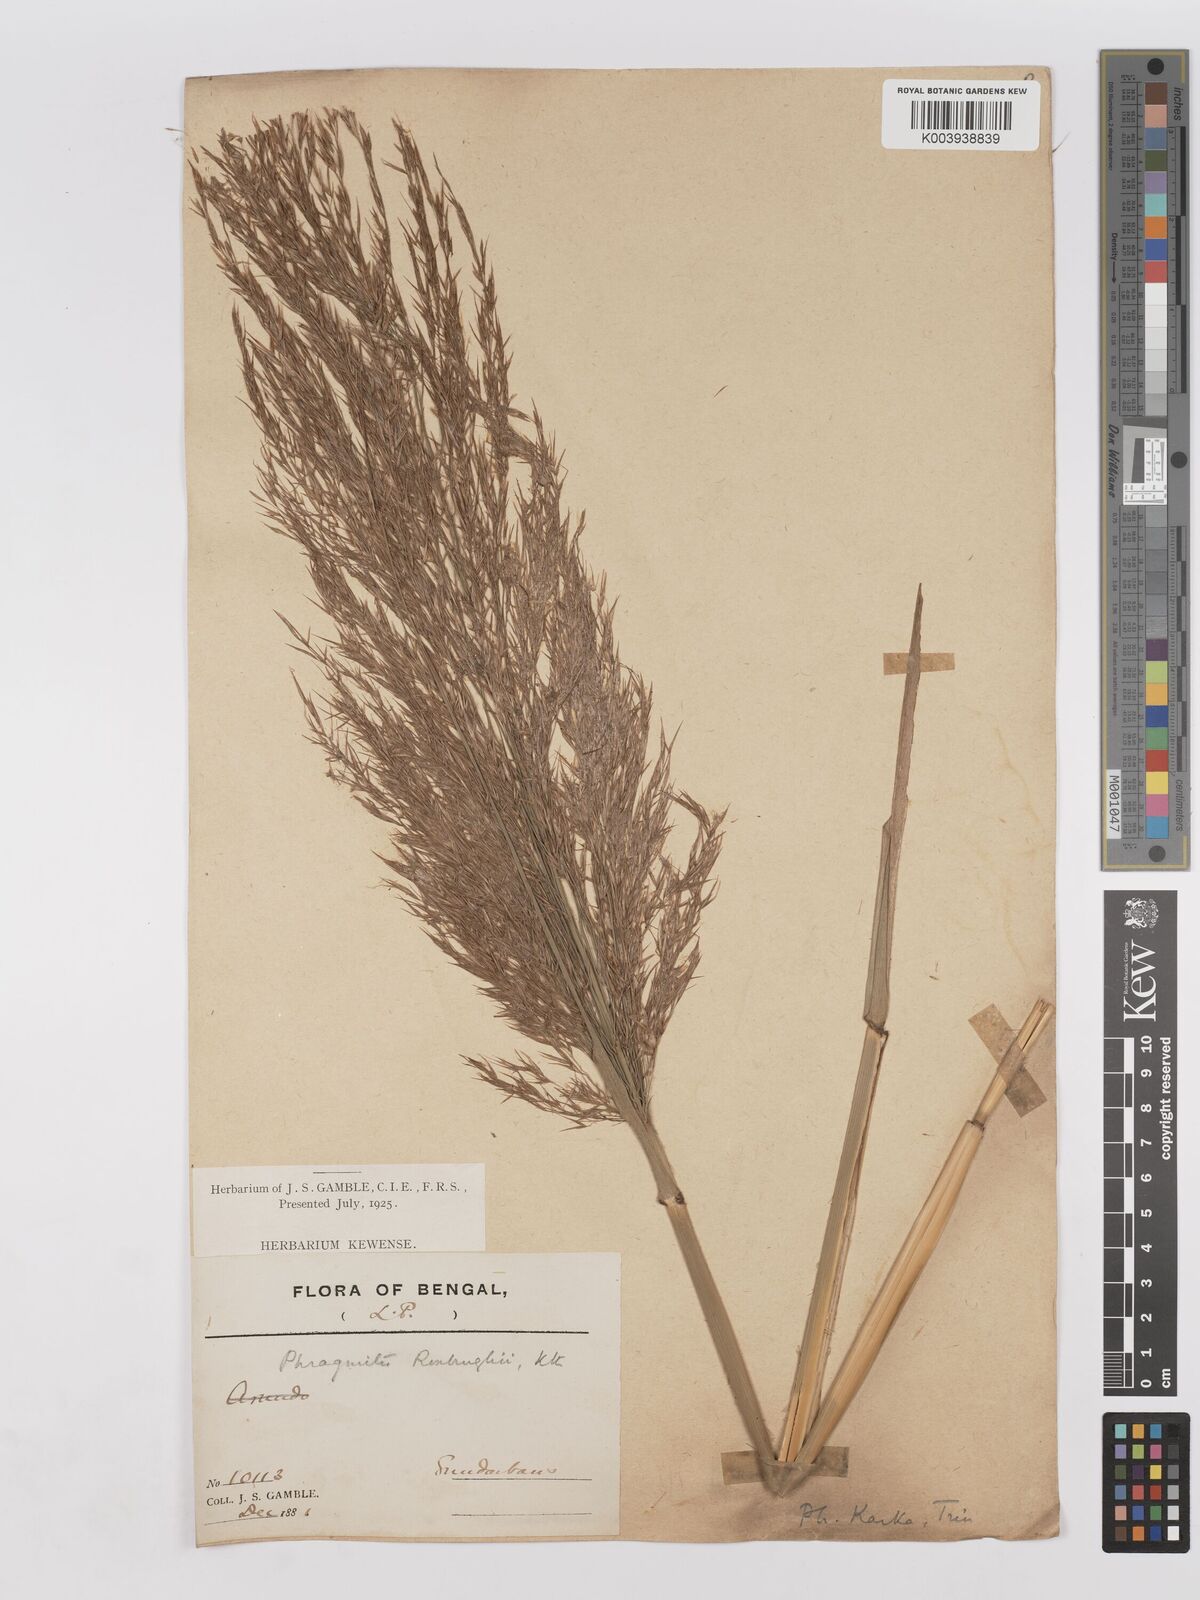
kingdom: Plantae
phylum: Tracheophyta
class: Liliopsida
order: Poales
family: Poaceae
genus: Phragmites
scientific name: Phragmites karka
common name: Tropical reed
